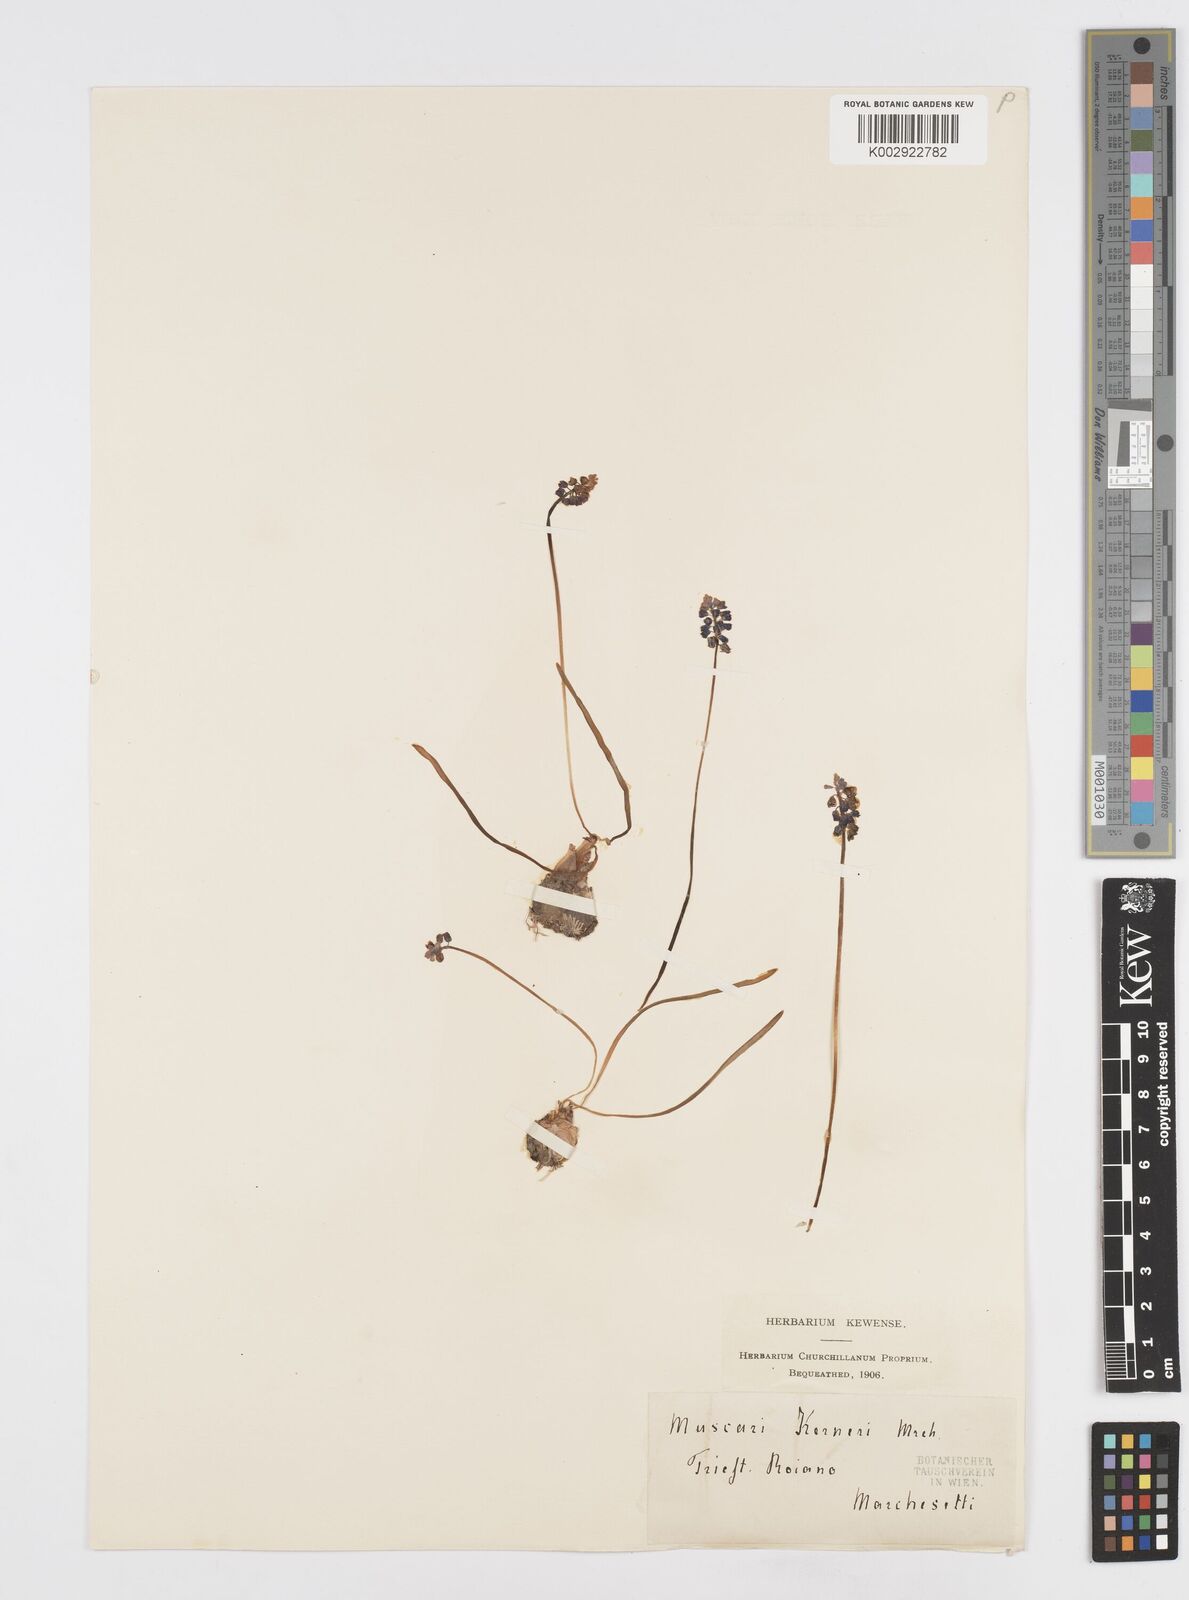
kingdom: Plantae
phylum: Tracheophyta
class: Liliopsida
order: Asparagales
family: Asparagaceae
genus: Muscari
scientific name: Muscari
